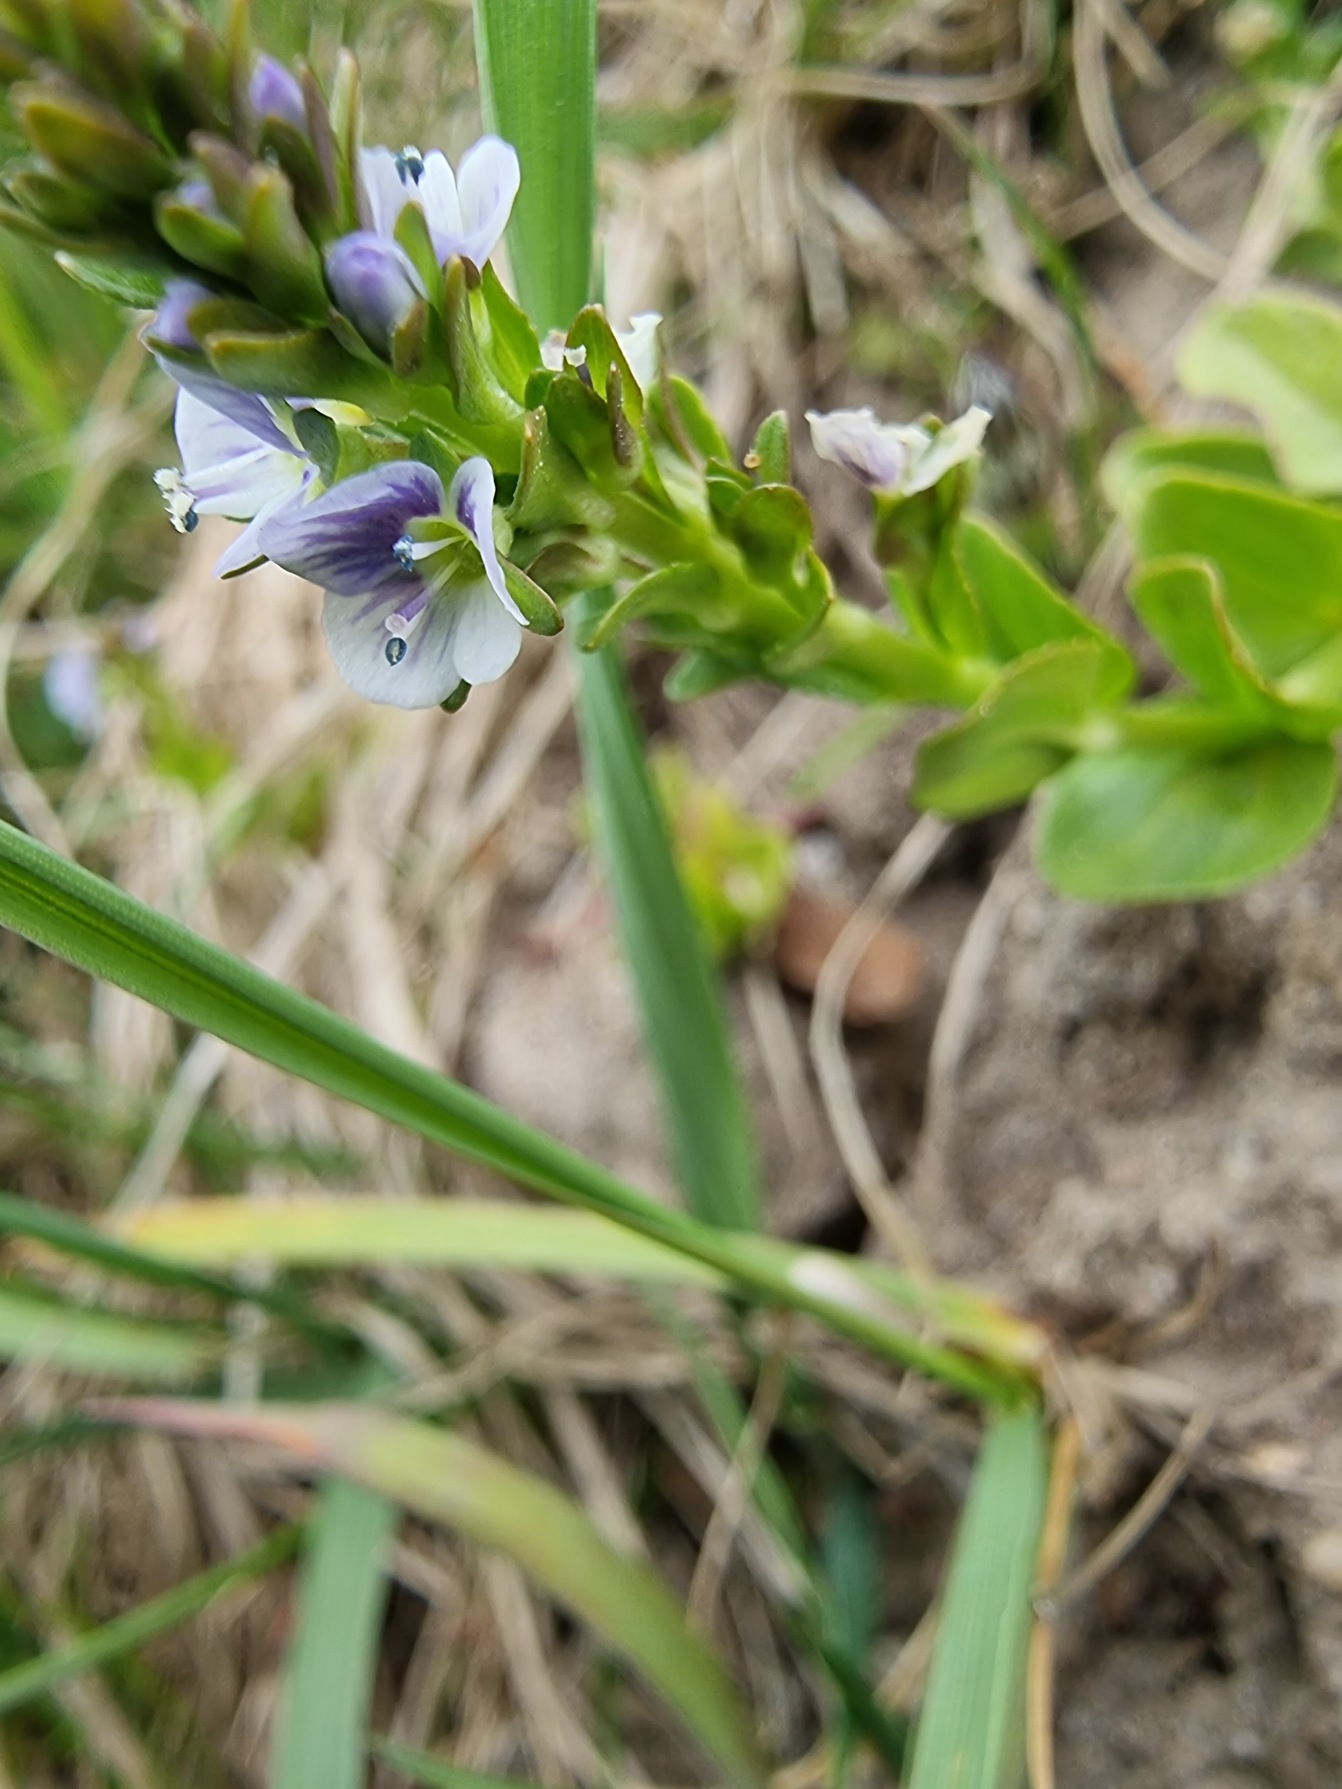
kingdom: Plantae
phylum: Tracheophyta
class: Magnoliopsida
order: Lamiales
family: Plantaginaceae
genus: Veronica
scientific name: Veronica serpyllifolia
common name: Glat ærenpris
